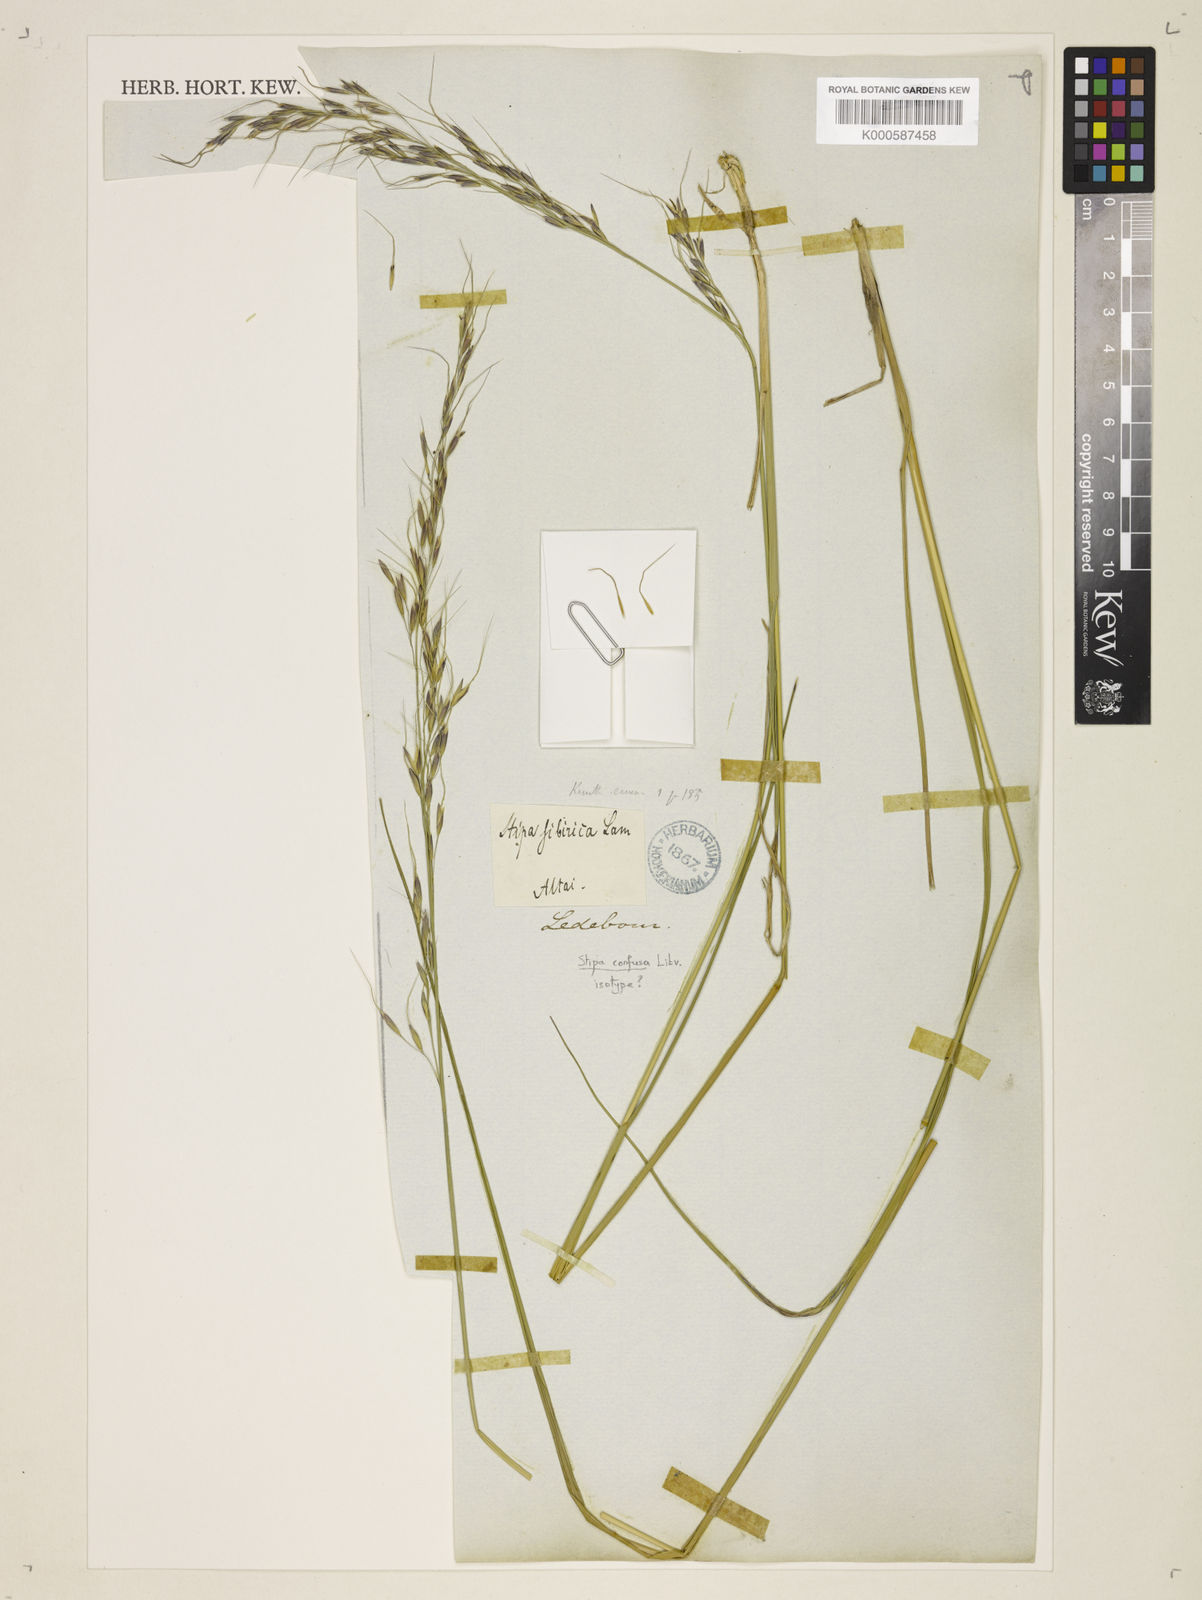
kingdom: Plantae
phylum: Tracheophyta
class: Liliopsida
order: Poales
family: Poaceae
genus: Achnatherum
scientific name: Achnatherum confusum
